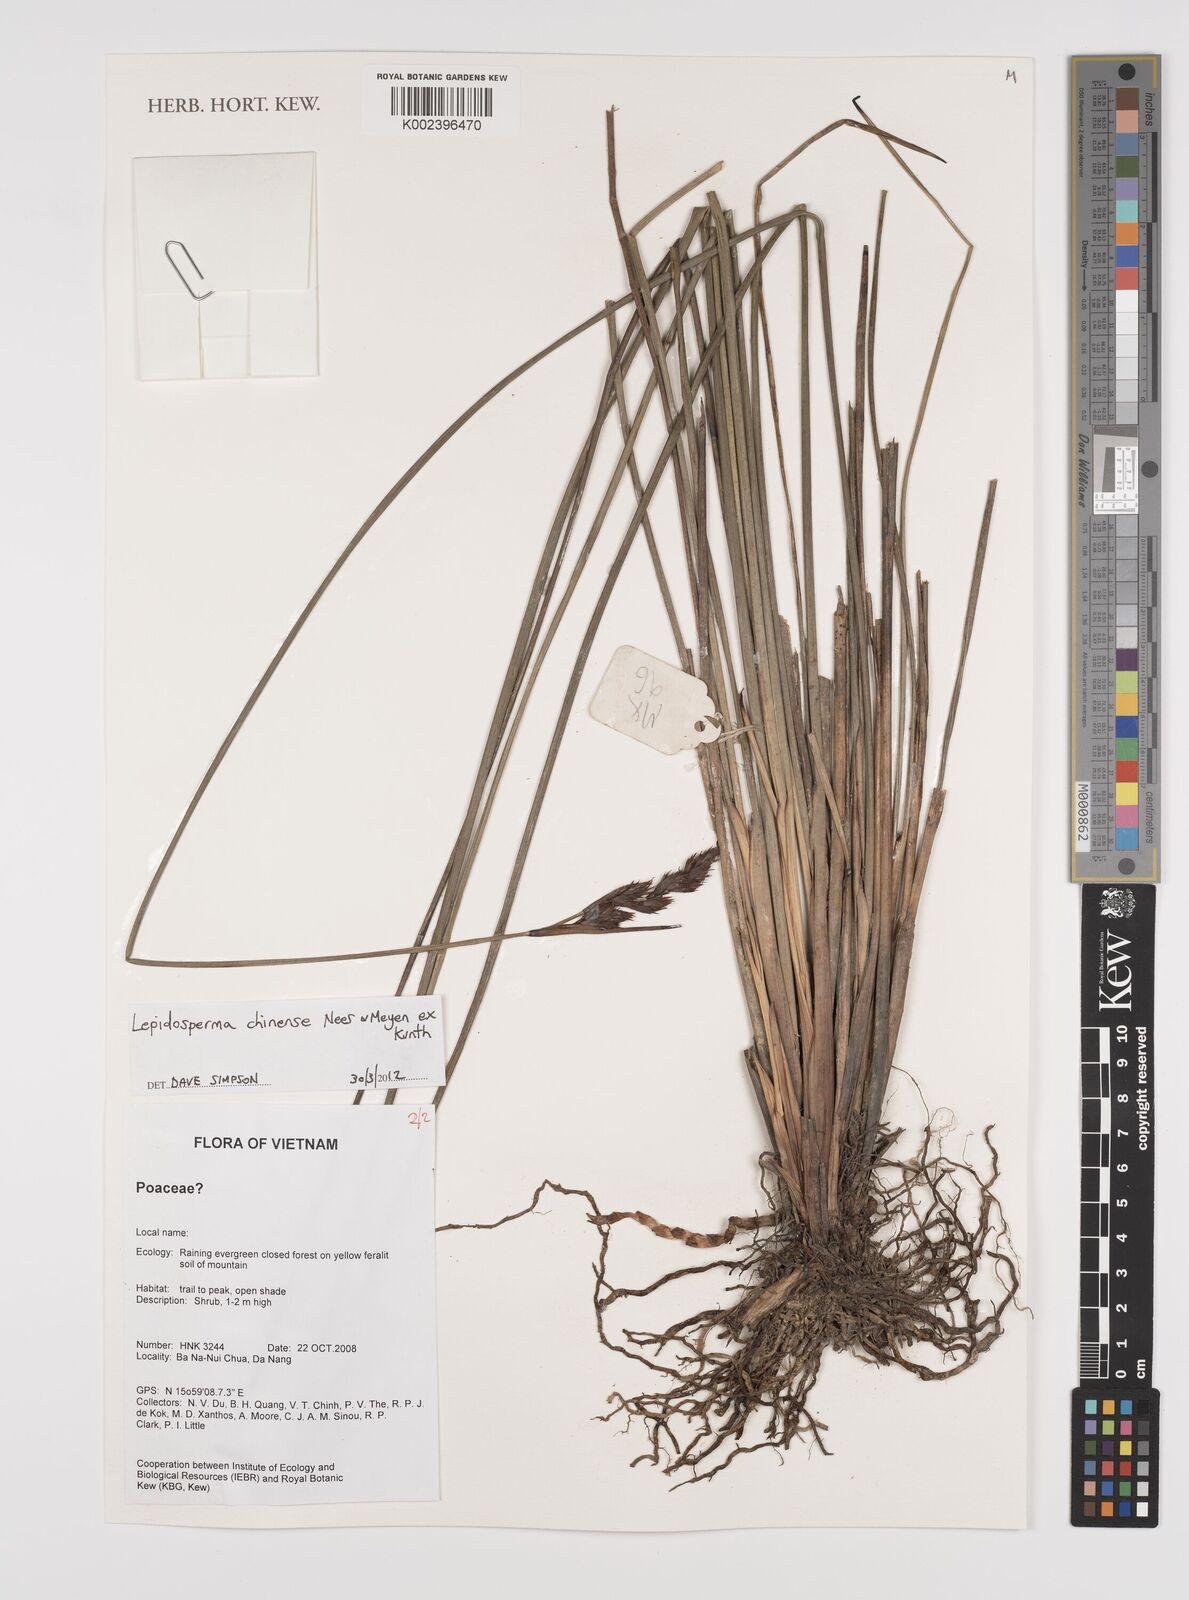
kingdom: Plantae
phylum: Tracheophyta
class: Liliopsida
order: Poales
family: Cyperaceae
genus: Lepidosperma
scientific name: Lepidosperma chinense
